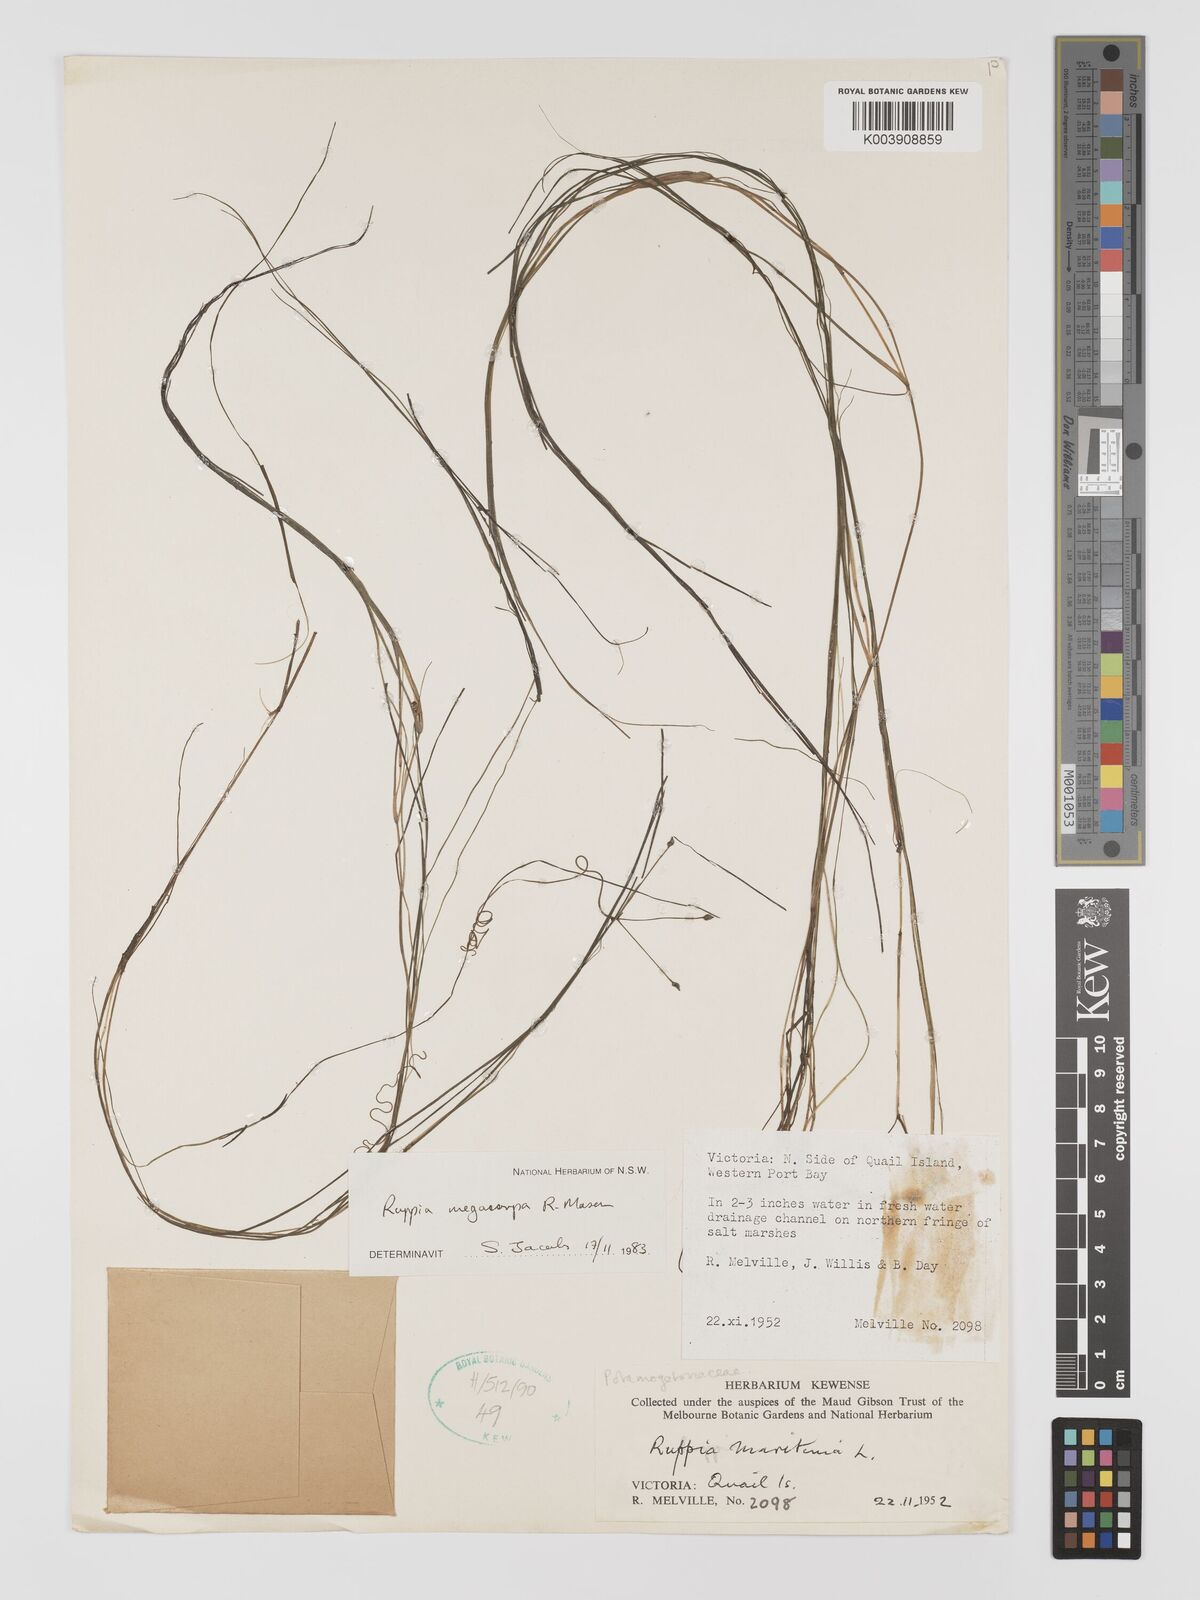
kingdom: Plantae
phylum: Tracheophyta
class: Liliopsida
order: Alismatales
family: Ruppiaceae
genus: Ruppia
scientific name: Ruppia megacarpa
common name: Large-fruit seatassel
